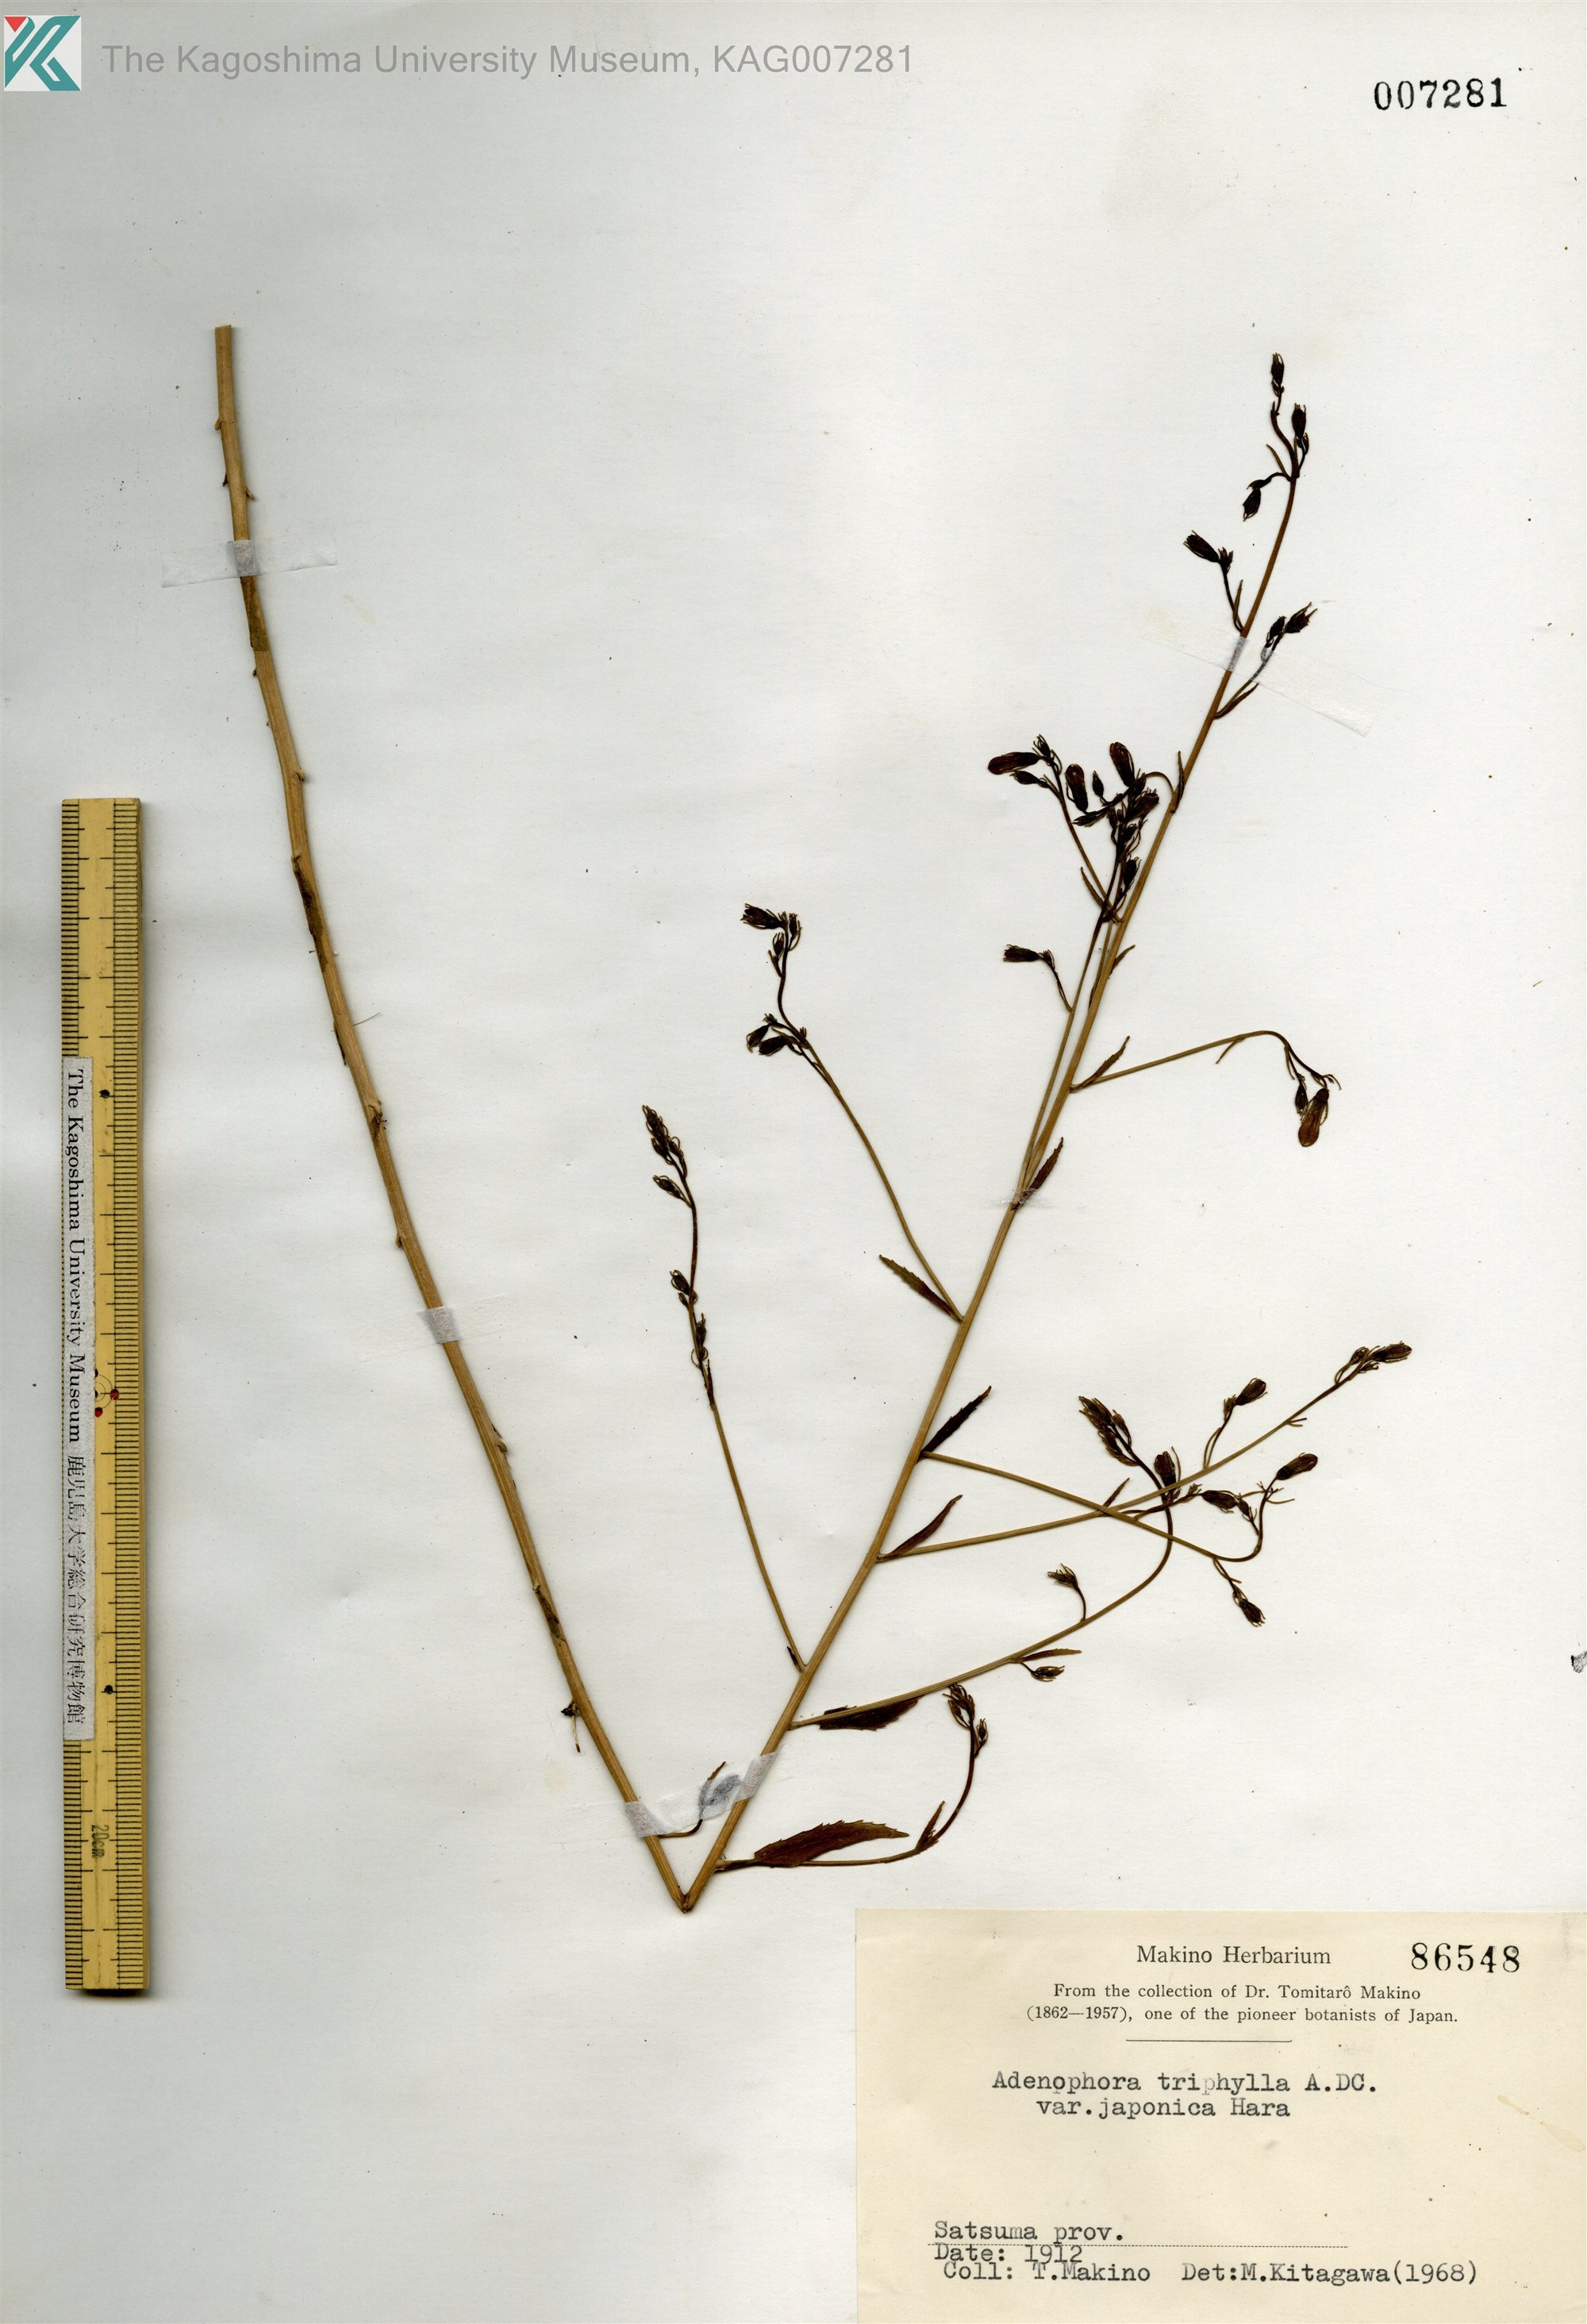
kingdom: Plantae
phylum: Tracheophyta
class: Magnoliopsida
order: Asterales
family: Campanulaceae
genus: Adenophora
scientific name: Adenophora triphylla
